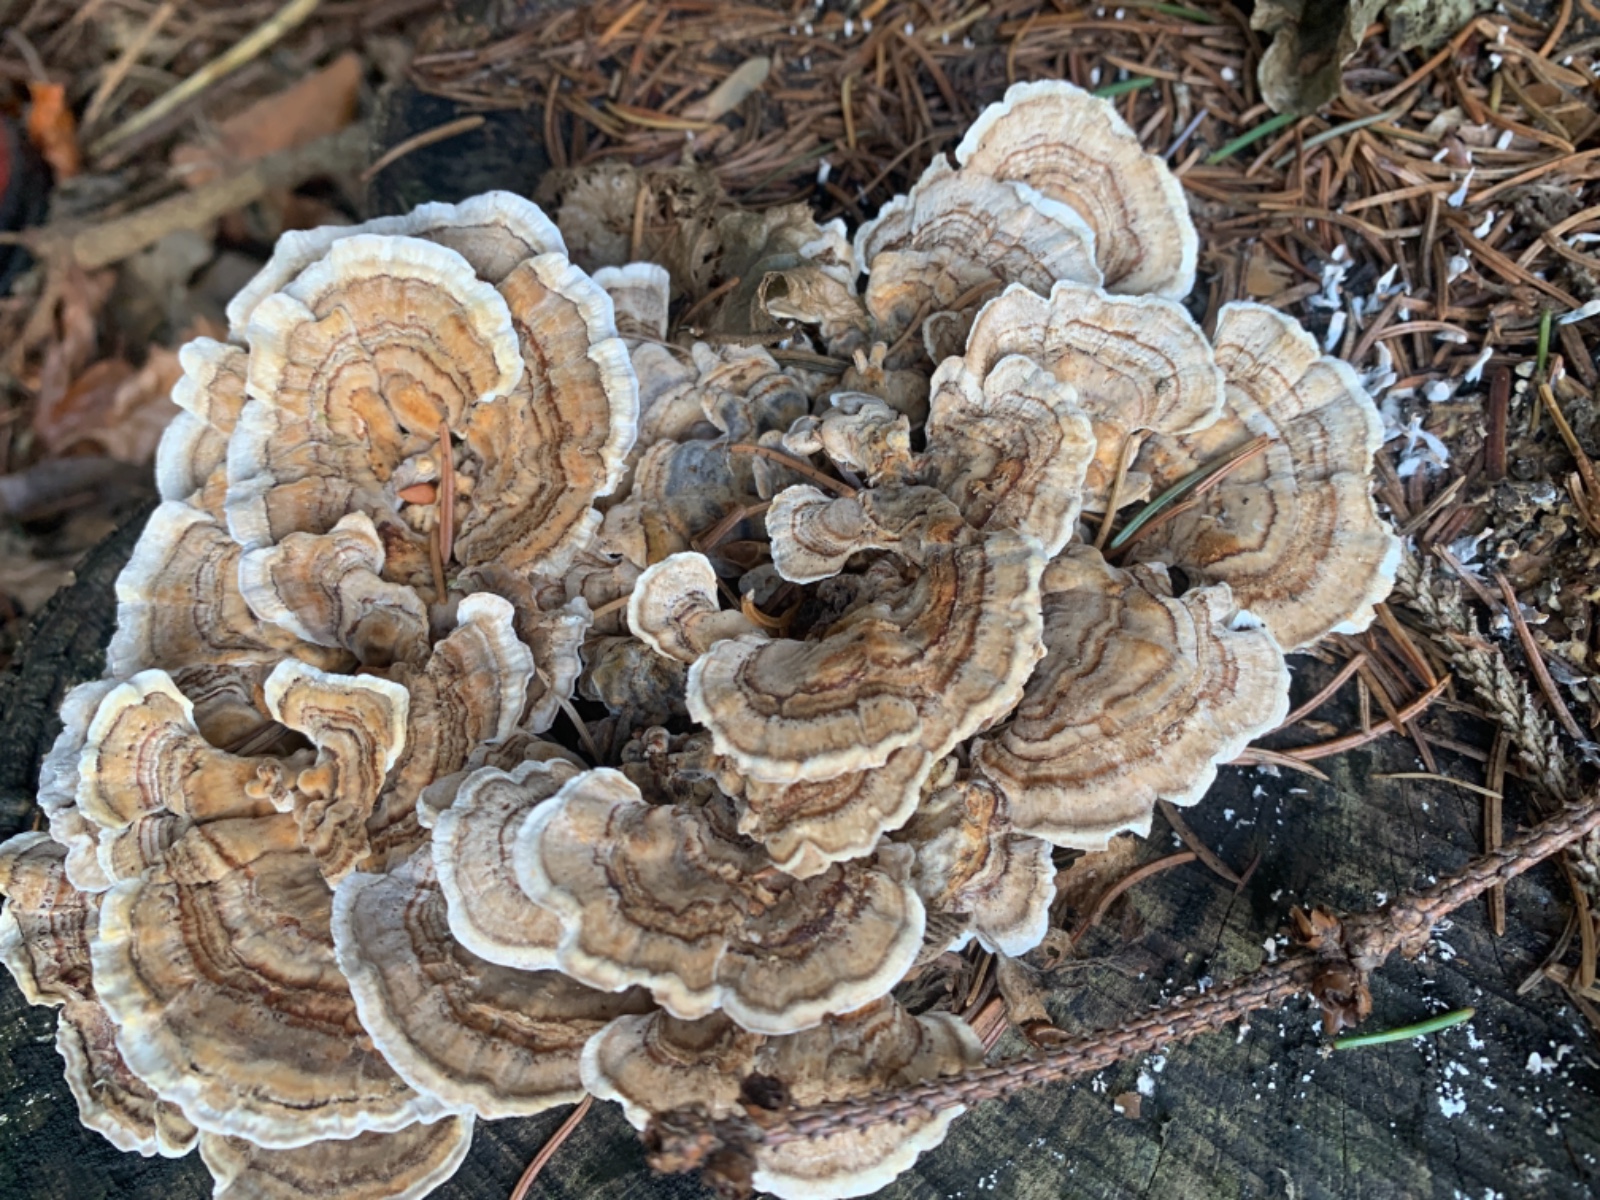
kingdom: Fungi
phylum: Basidiomycota
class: Agaricomycetes
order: Polyporales
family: Polyporaceae
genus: Trametes
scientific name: Trametes versicolor
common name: broget læderporesvamp
